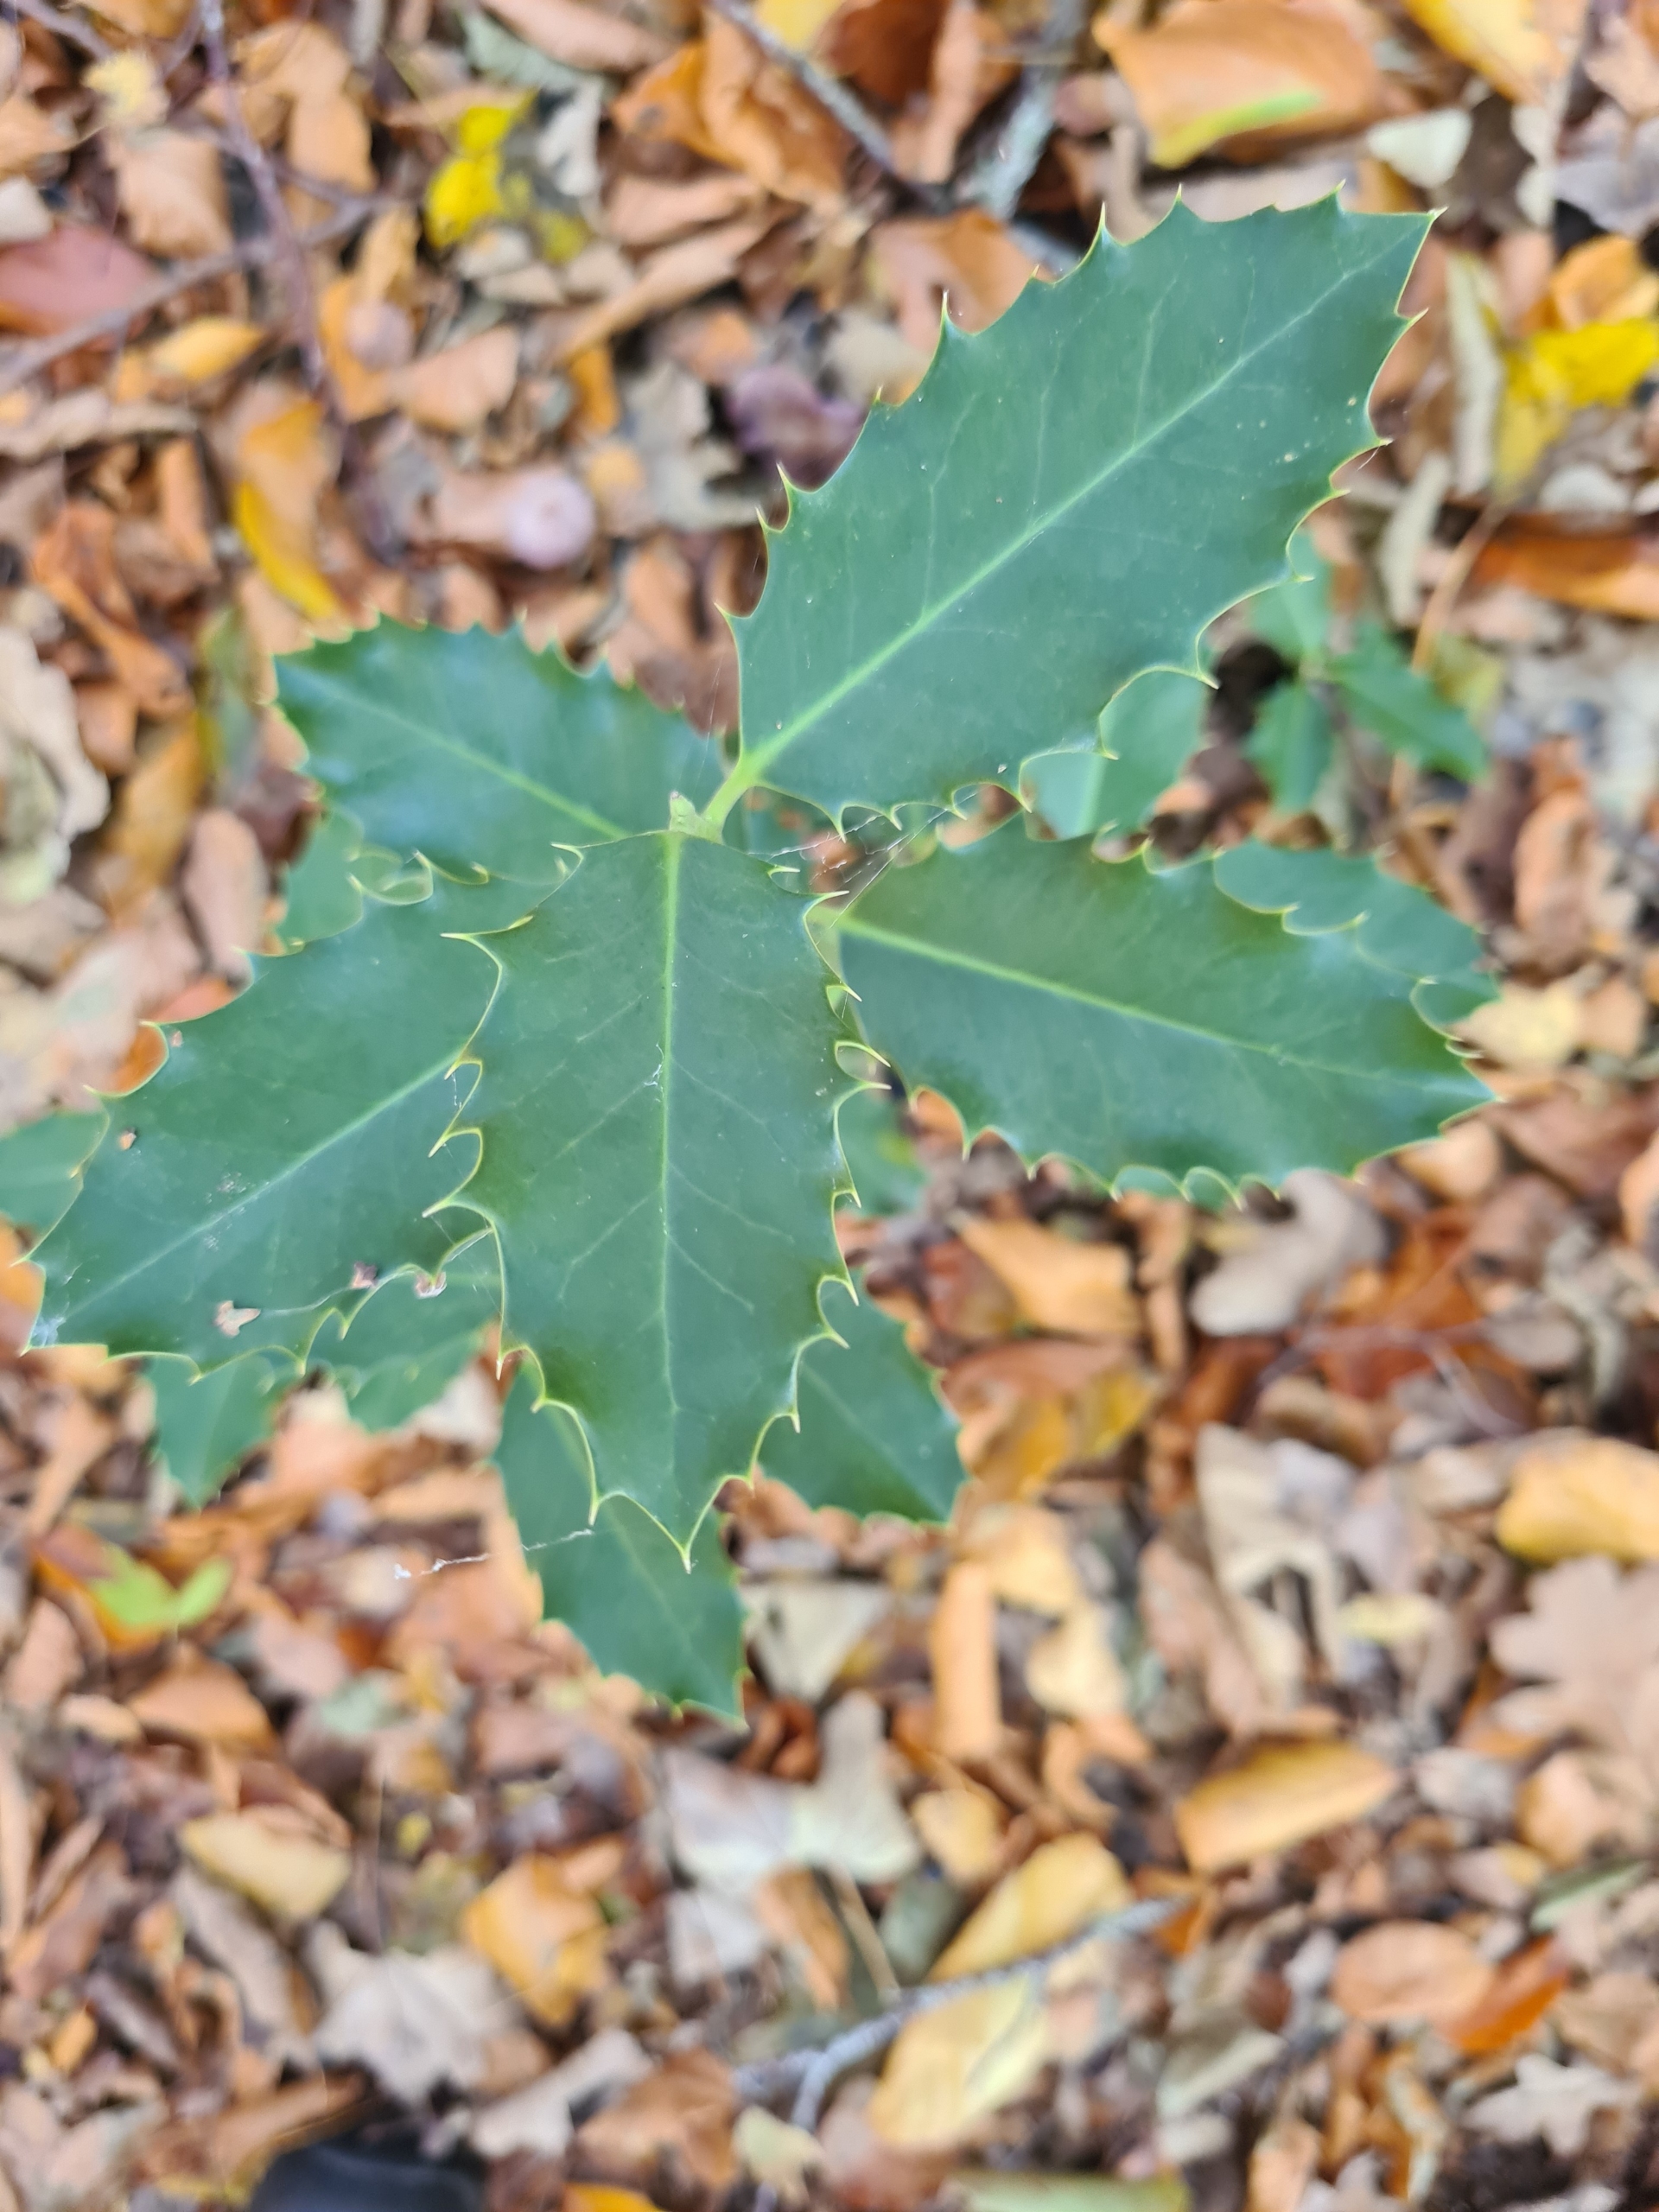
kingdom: Plantae
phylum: Tracheophyta
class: Magnoliopsida
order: Aquifoliales
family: Aquifoliaceae
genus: Ilex
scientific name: Ilex aquifolium
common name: Kristtorn
